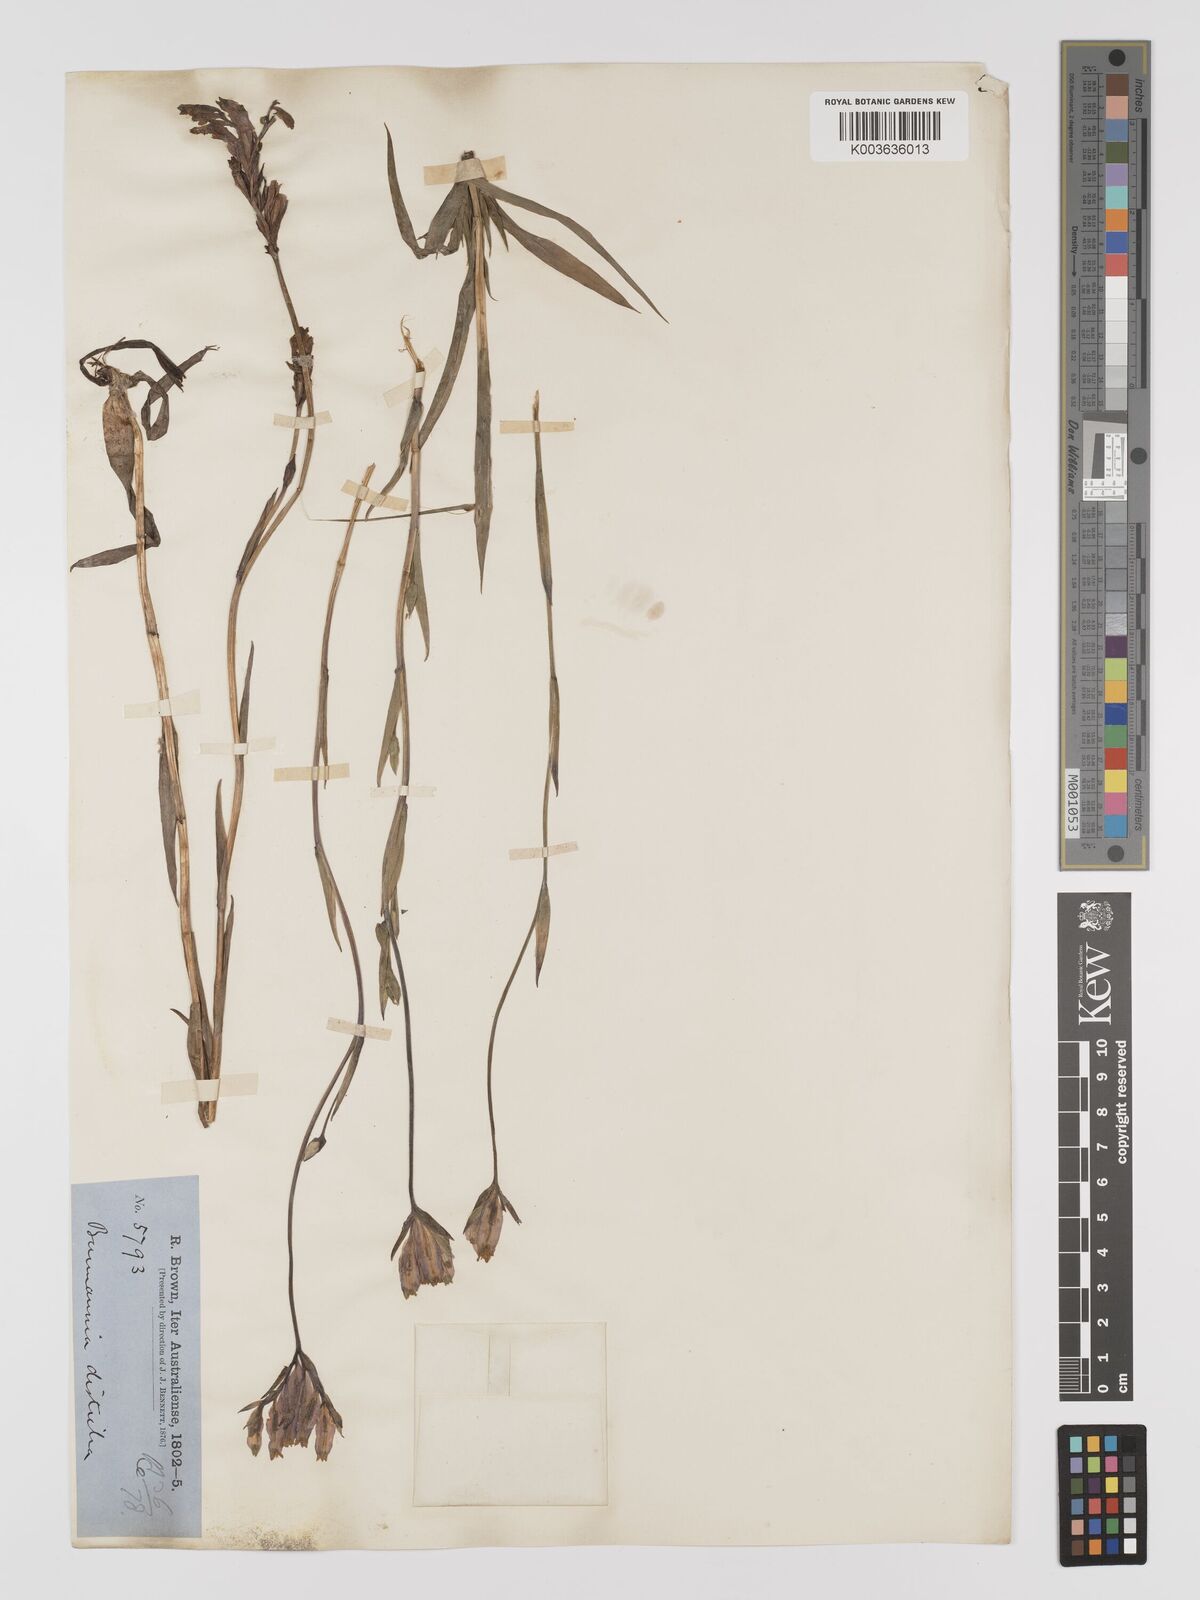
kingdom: Plantae
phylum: Tracheophyta
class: Liliopsida
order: Dioscoreales
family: Burmanniaceae
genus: Burmannia
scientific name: Burmannia disticha
